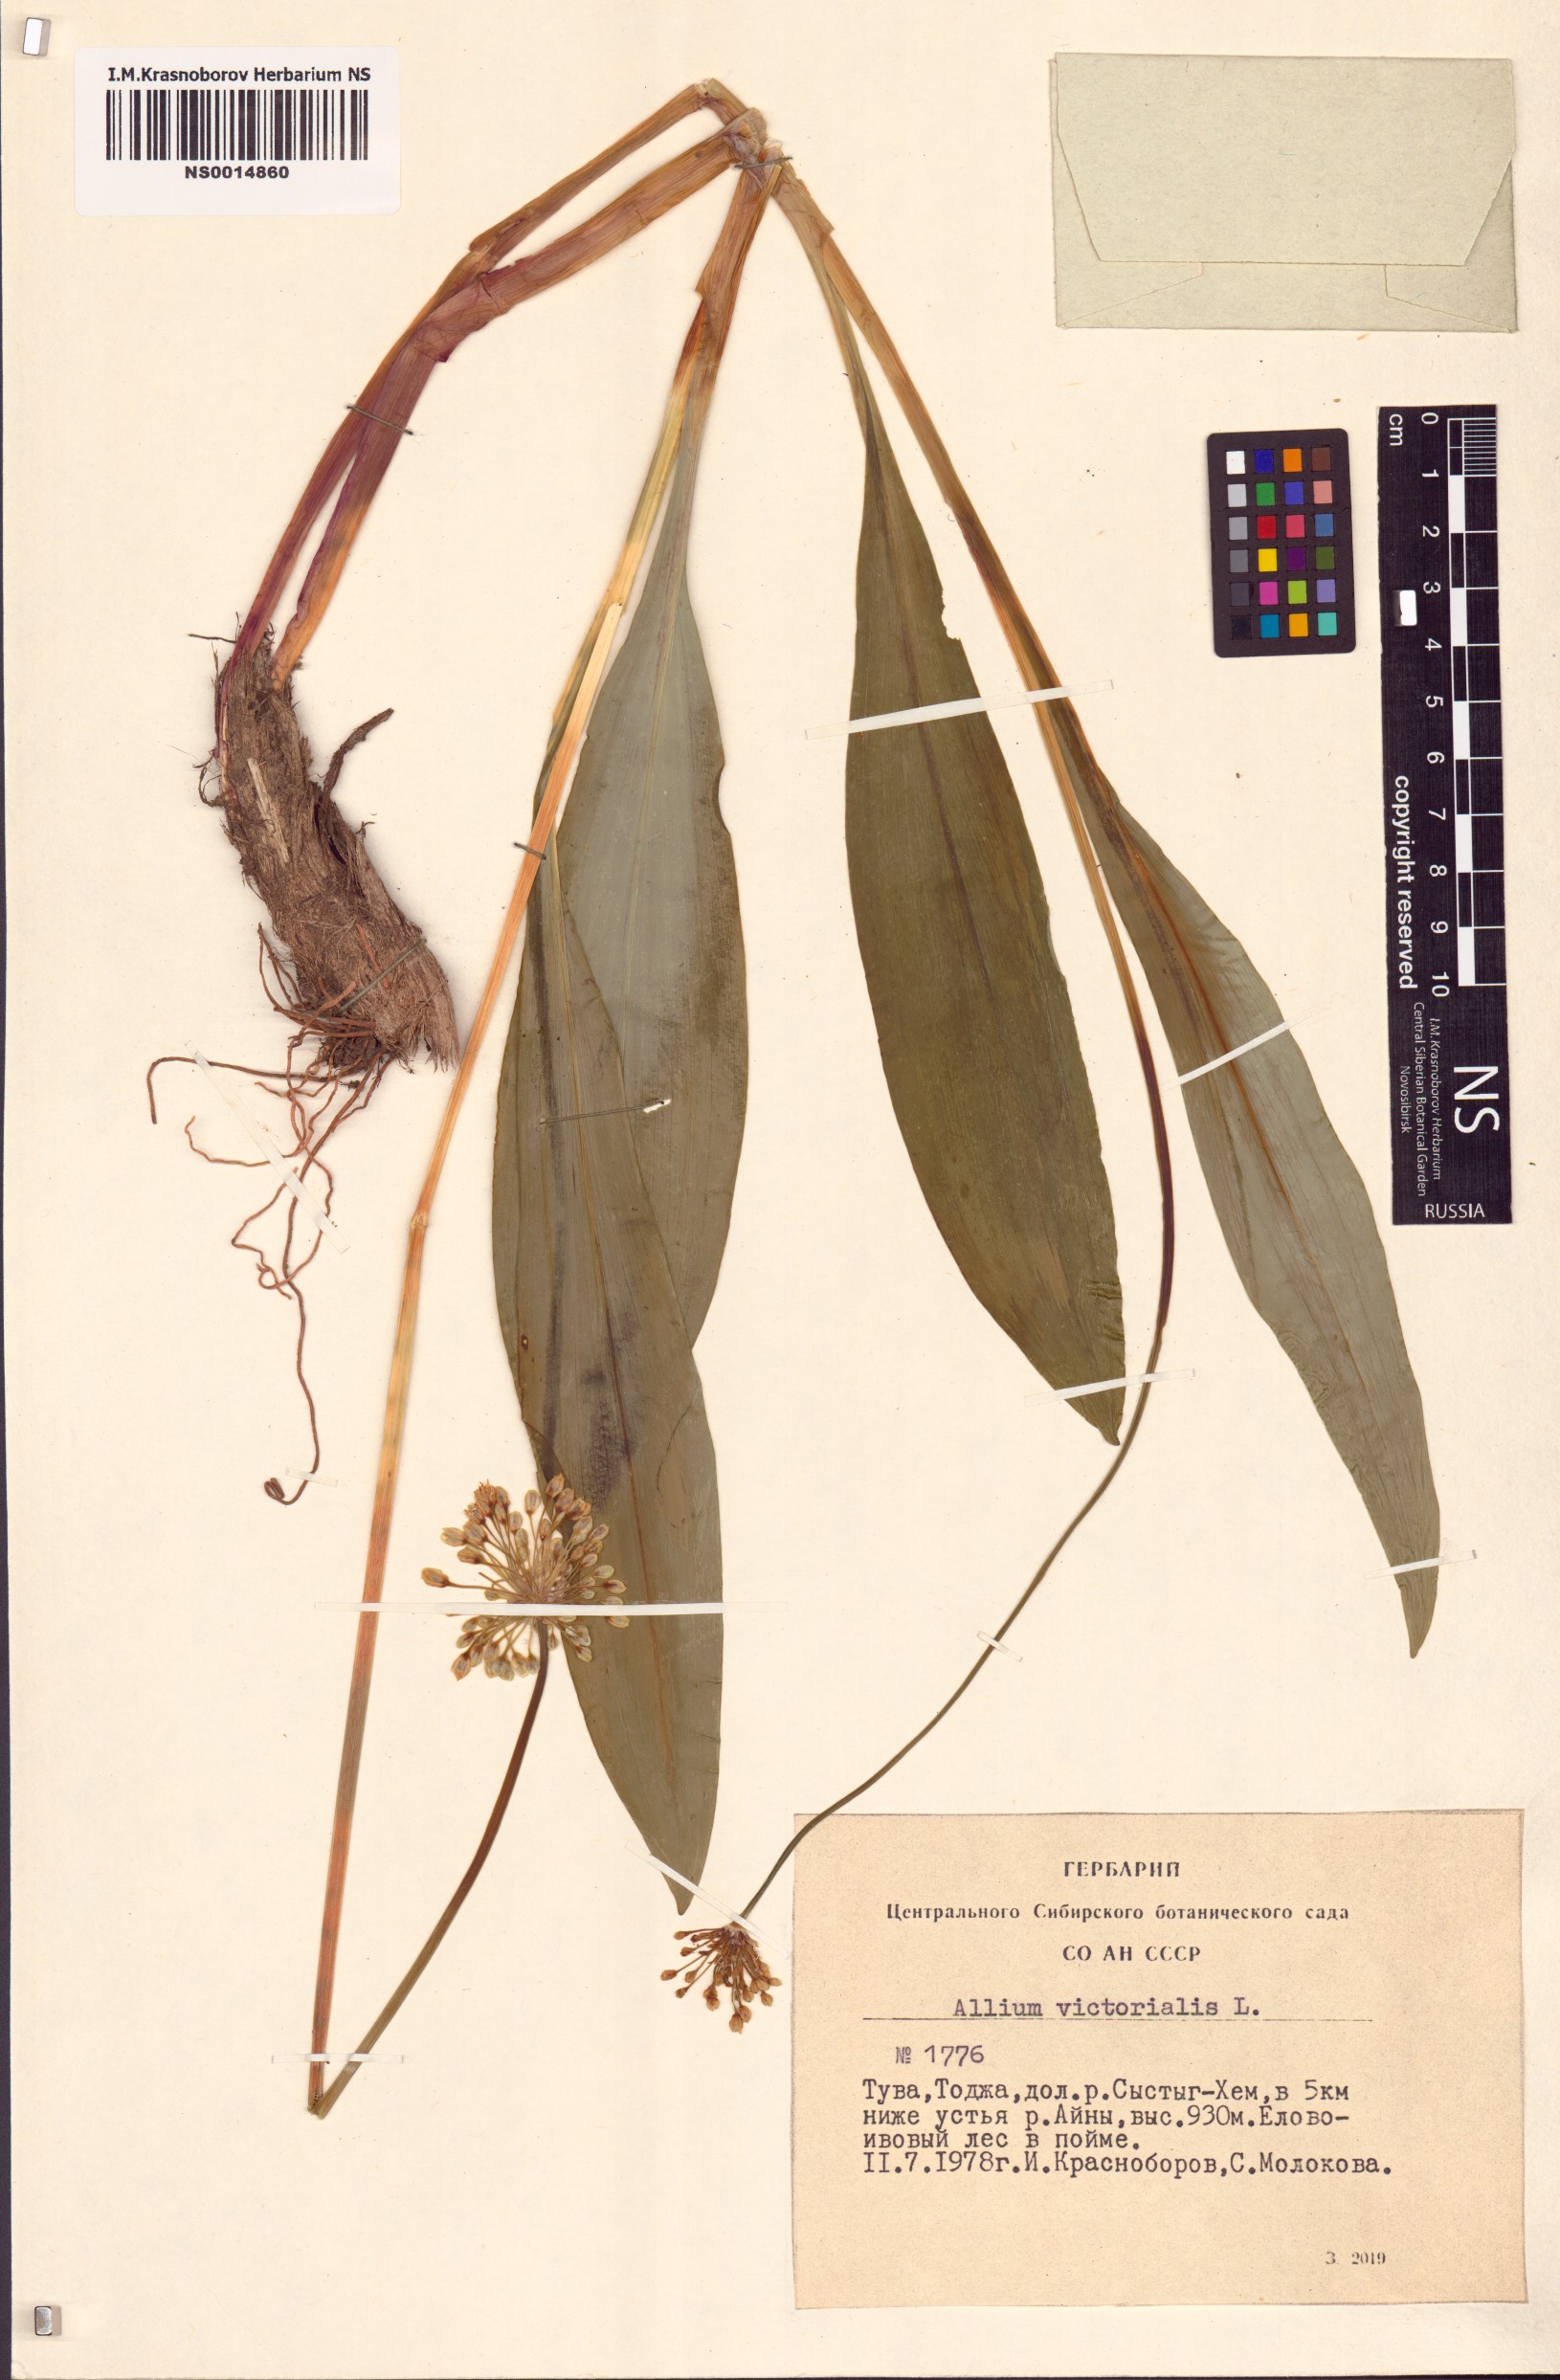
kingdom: Plantae
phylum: Tracheophyta
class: Liliopsida
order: Asparagales
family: Amaryllidaceae
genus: Allium
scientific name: Allium victorialis
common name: Alpine leek
